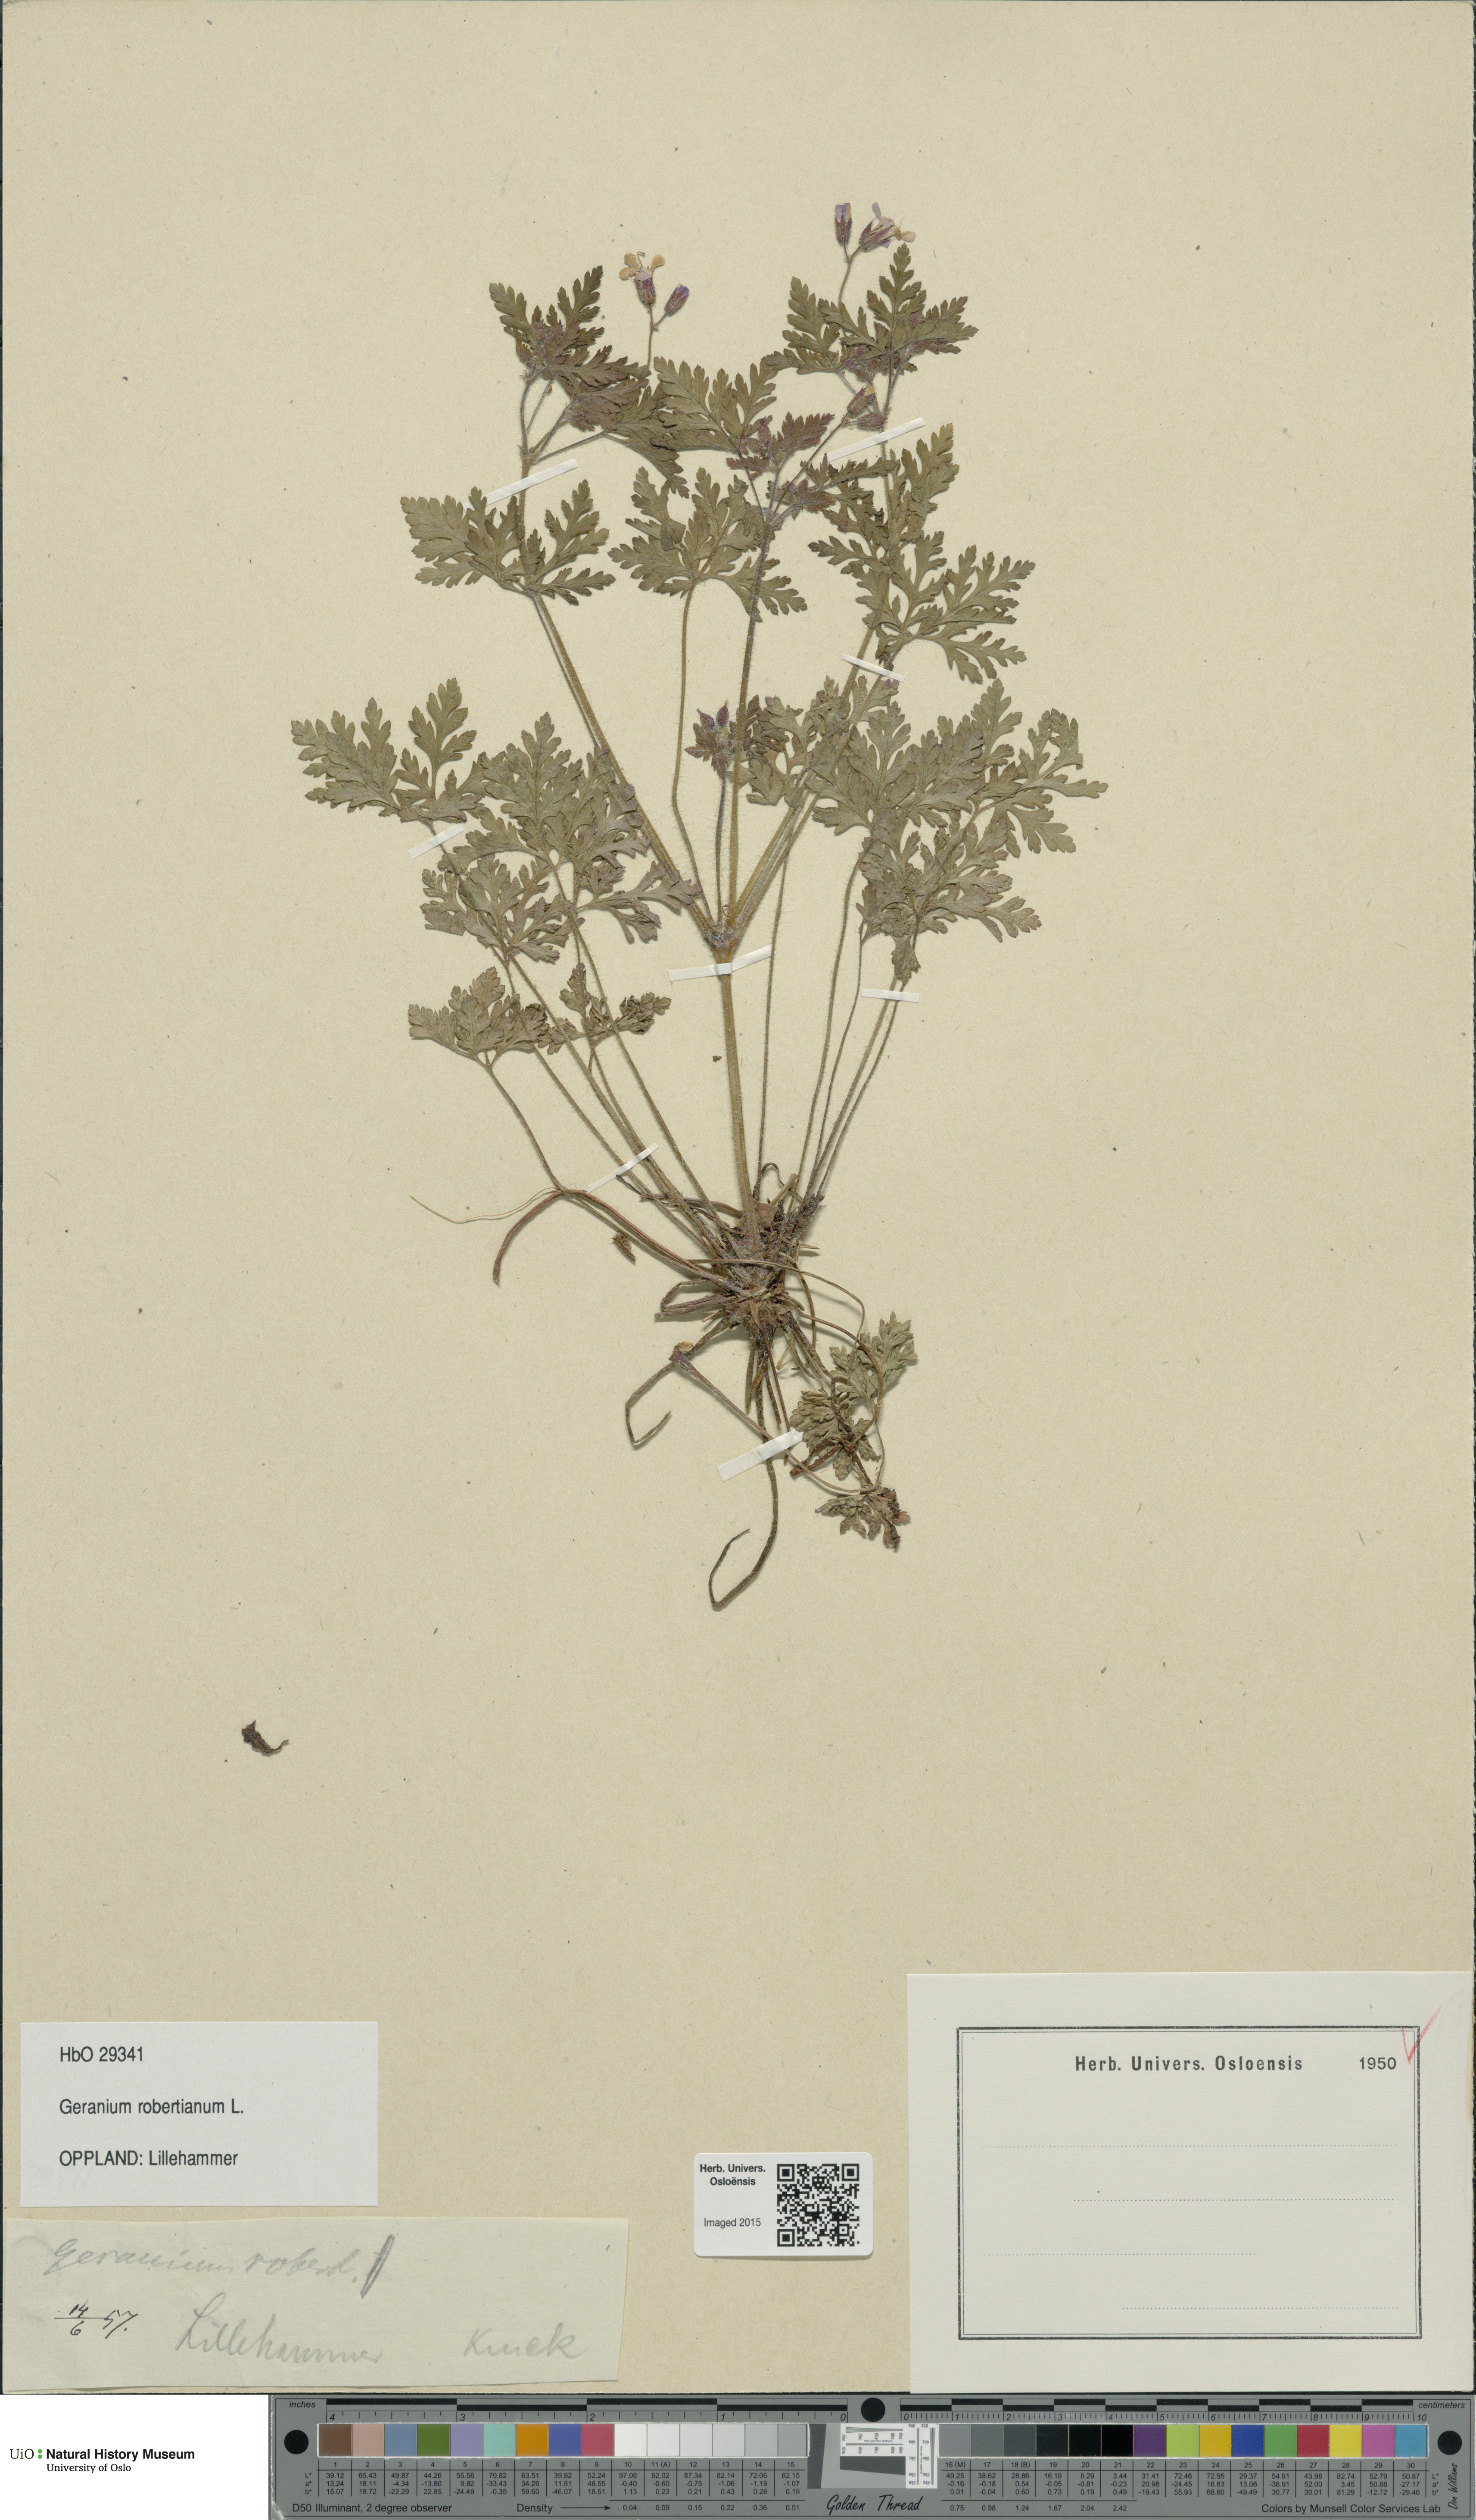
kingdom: Plantae
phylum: Tracheophyta
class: Magnoliopsida
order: Geraniales
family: Geraniaceae
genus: Geranium
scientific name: Geranium robertianum
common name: Herb-robert
